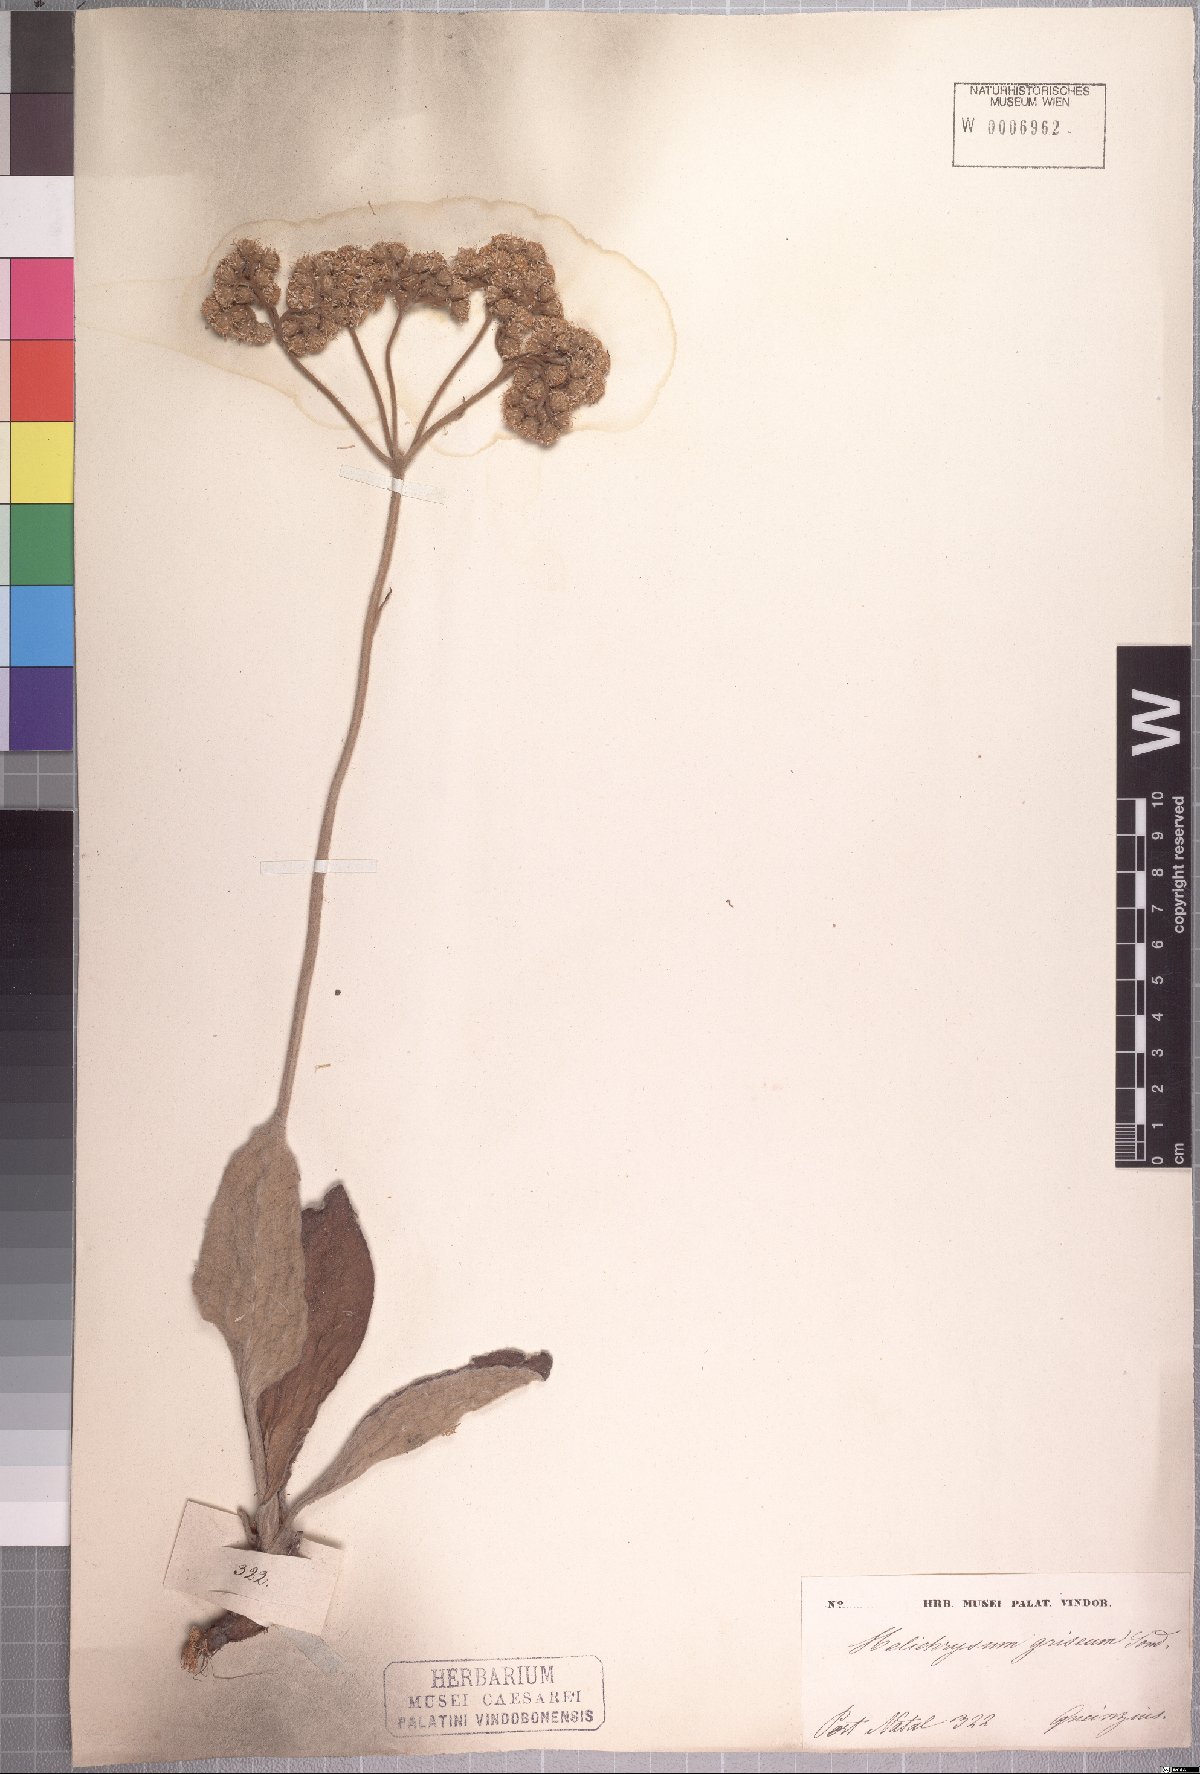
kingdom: Plantae
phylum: Tracheophyta
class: Magnoliopsida
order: Asterales
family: Asteraceae
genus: Helichrysum
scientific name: Helichrysum griseum
